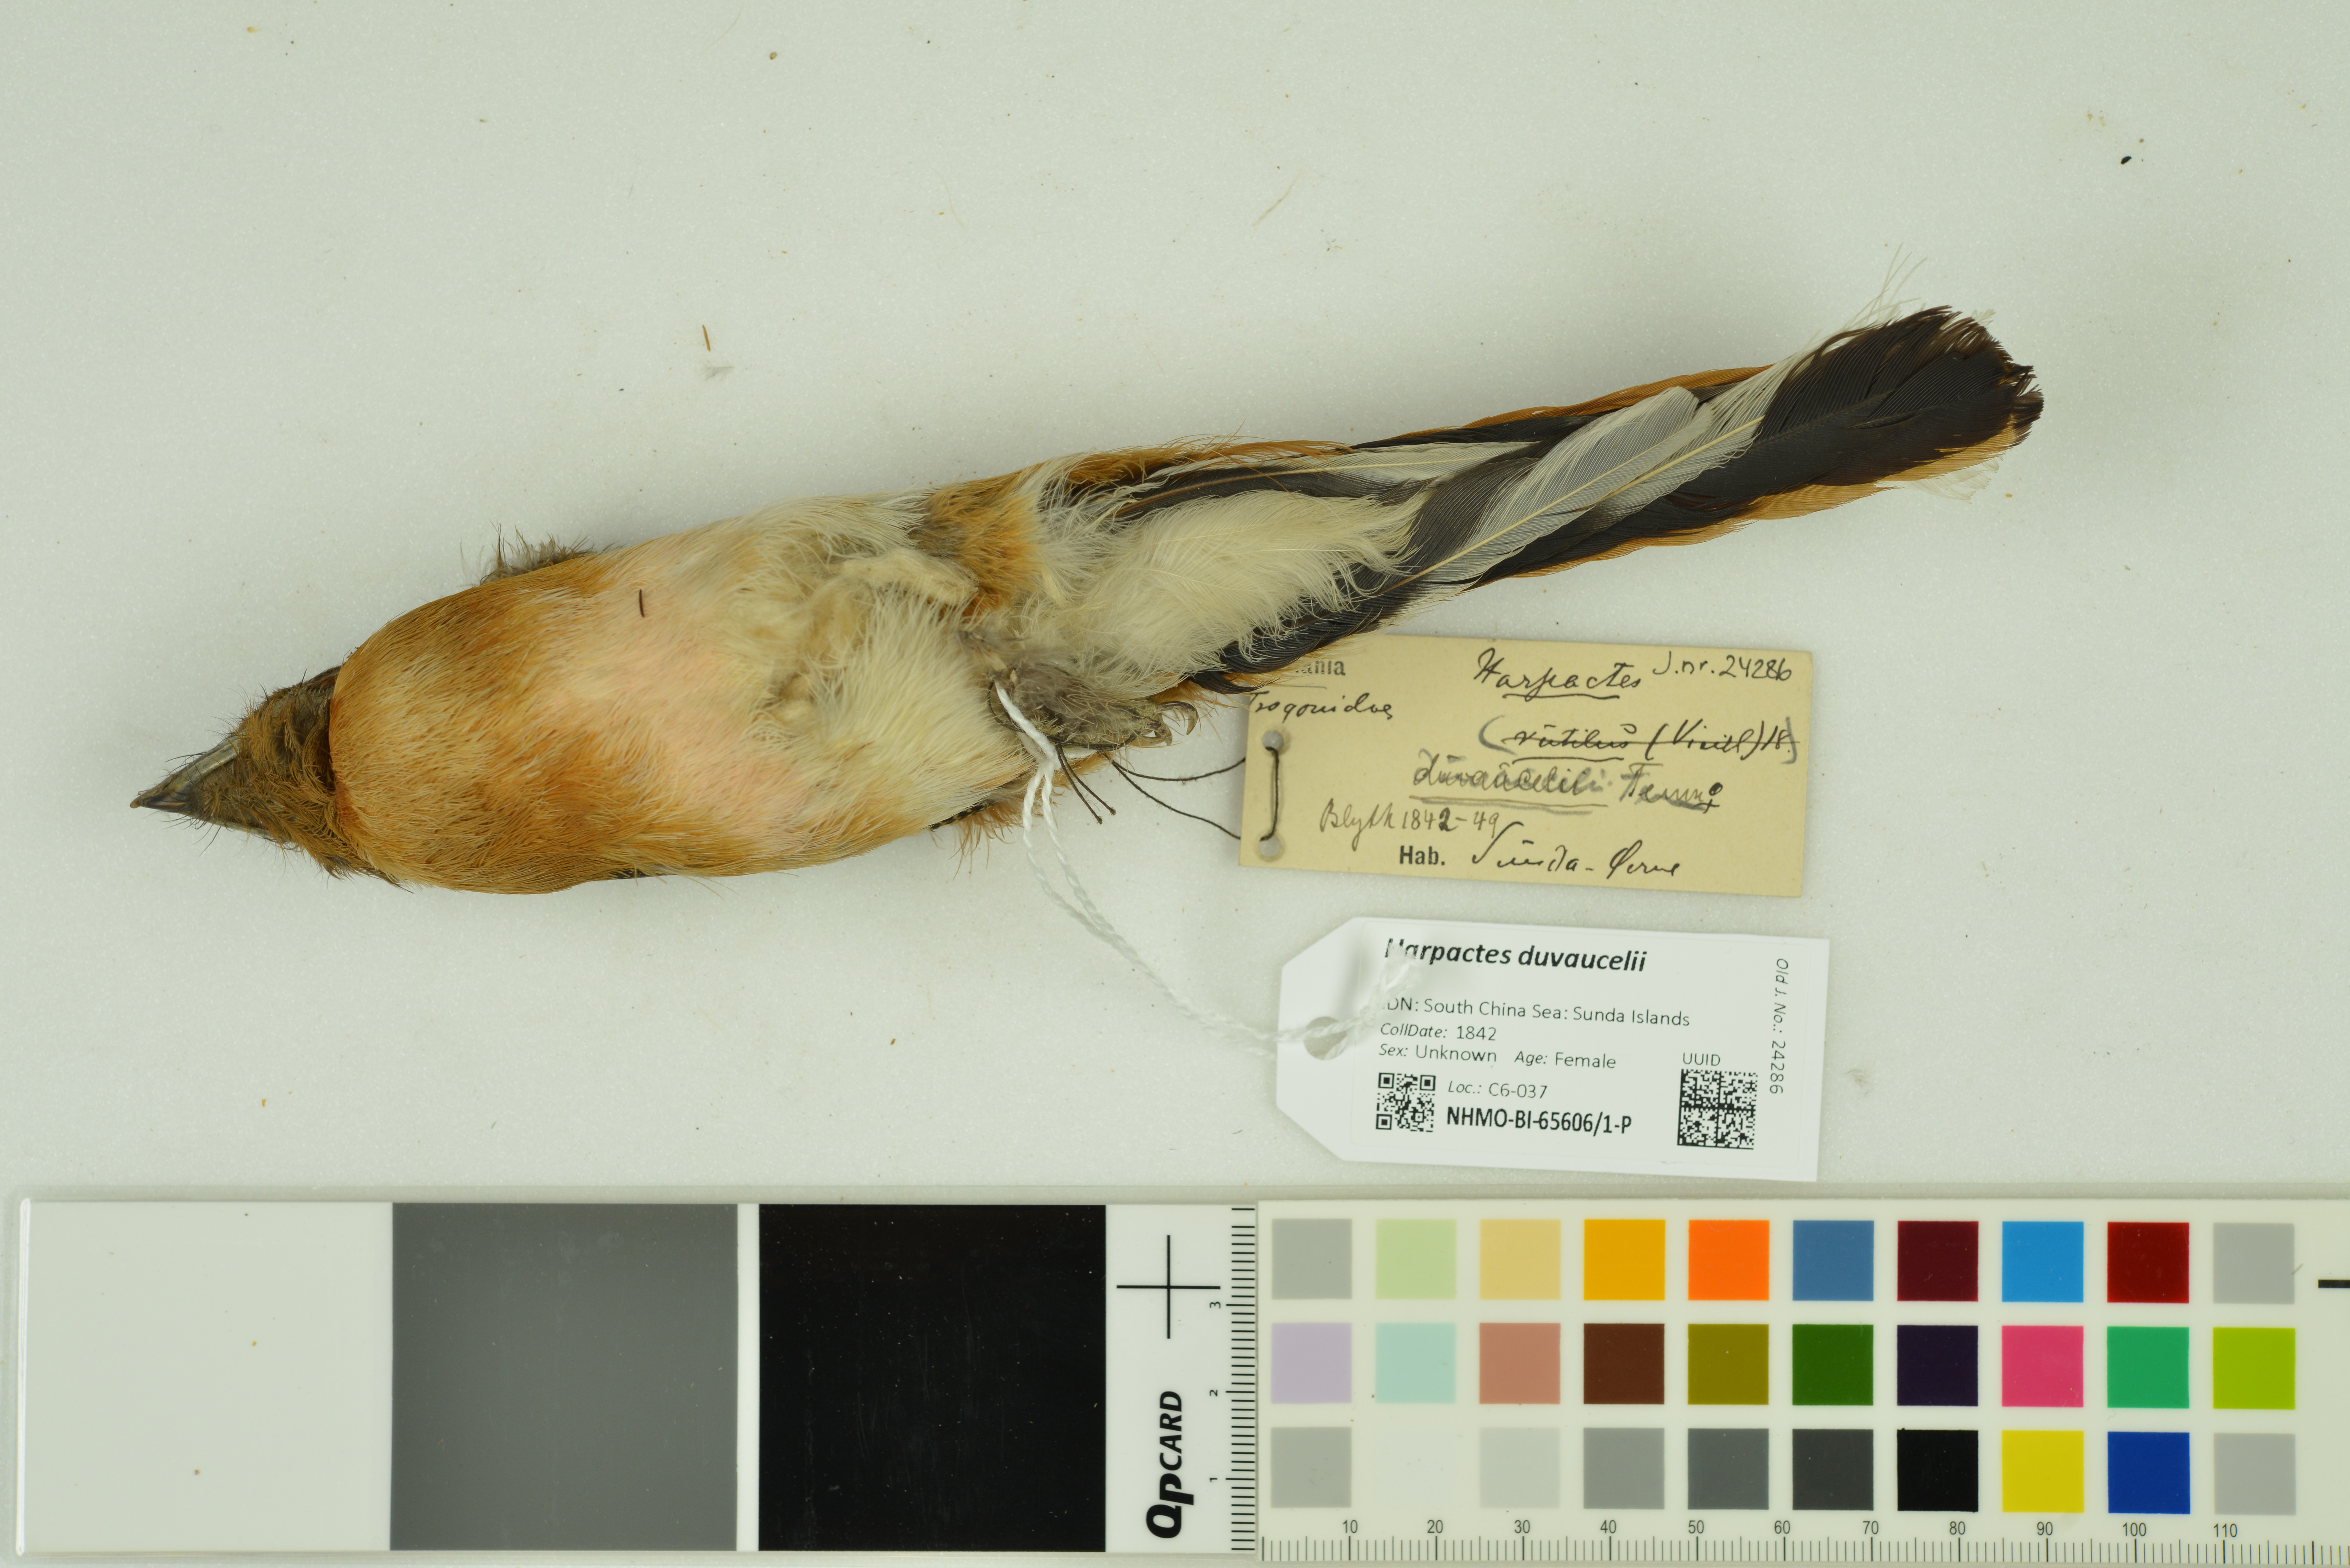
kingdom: Animalia
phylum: Chordata
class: Aves
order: Trogoniformes
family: Trogonidae
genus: Harpactes
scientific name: Harpactes duvaucelii
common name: Scarlet-rumped trogon
